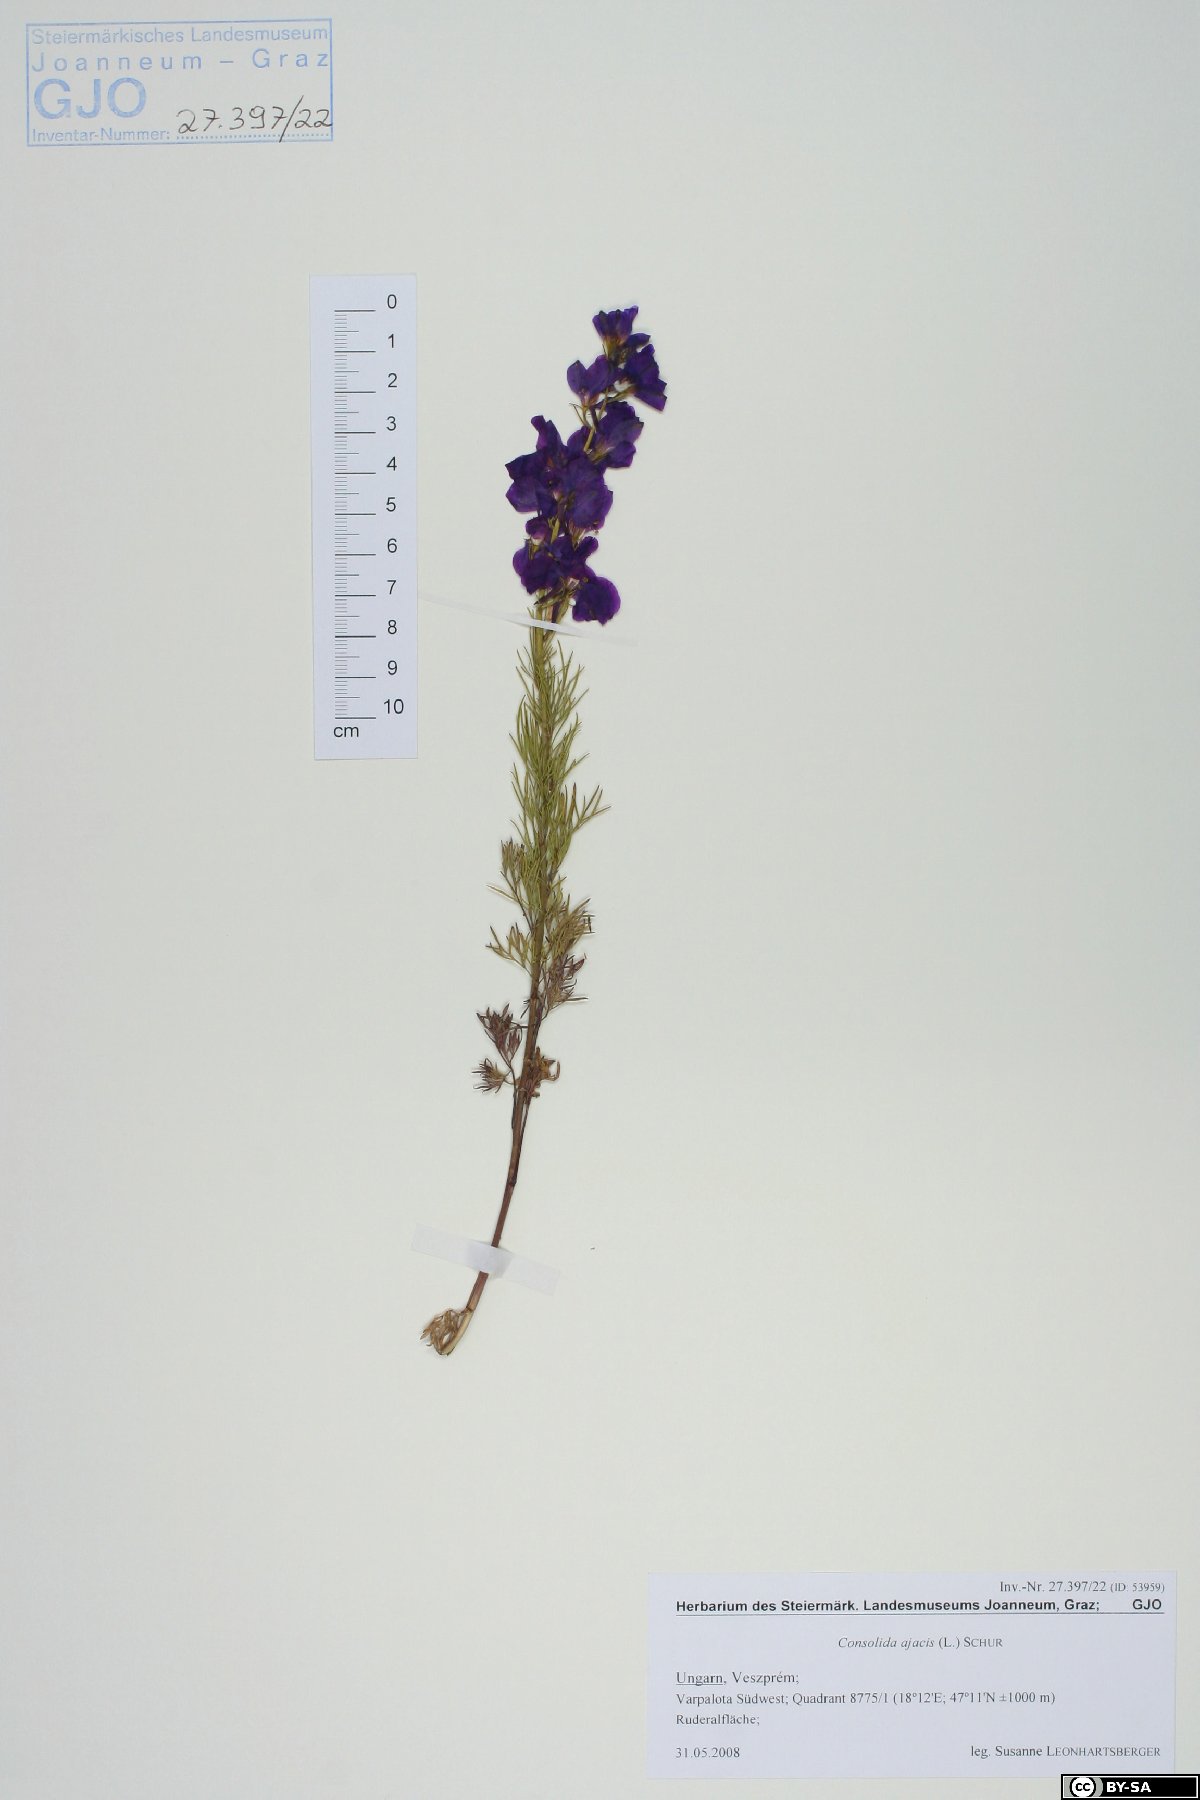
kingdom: Plantae
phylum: Tracheophyta
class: Magnoliopsida
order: Ranunculales
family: Ranunculaceae
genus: Delphinium
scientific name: Delphinium ajacis
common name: Doubtful knight's-spur
